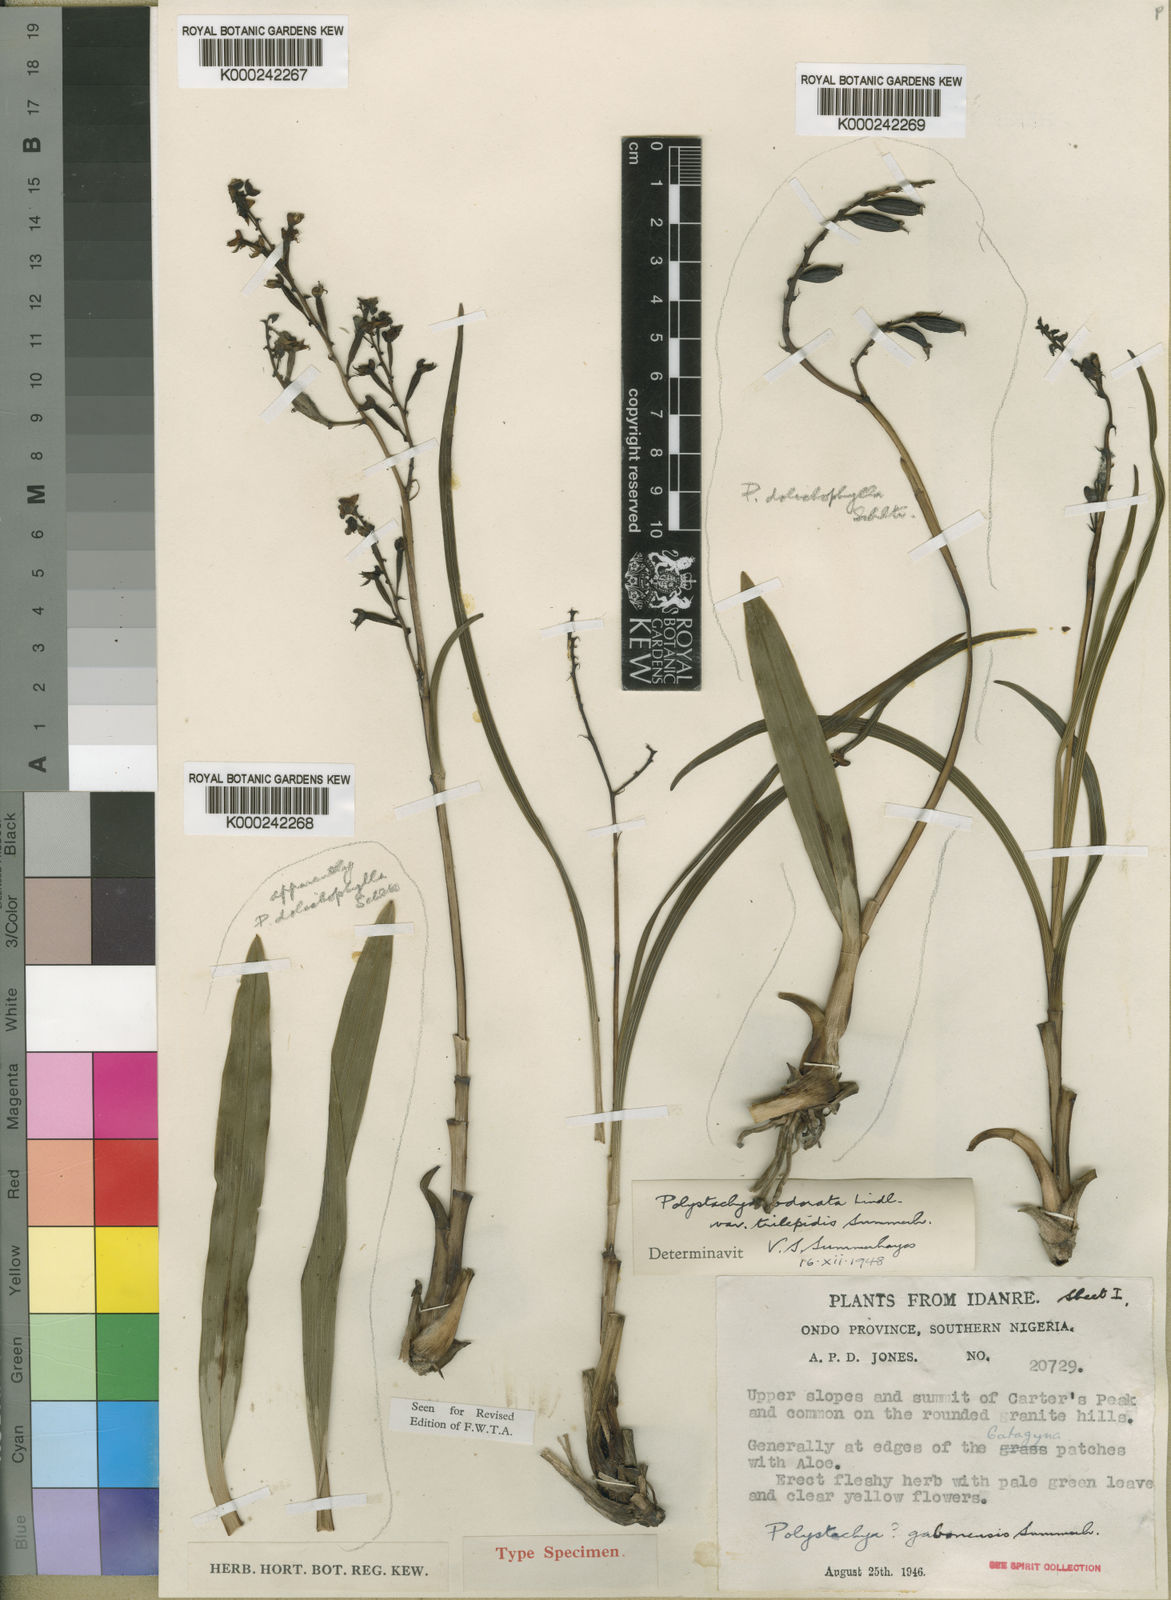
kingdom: Plantae
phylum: Tracheophyta
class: Liliopsida
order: Asparagales
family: Orchidaceae
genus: Polystachya
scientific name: Polystachya odorata
